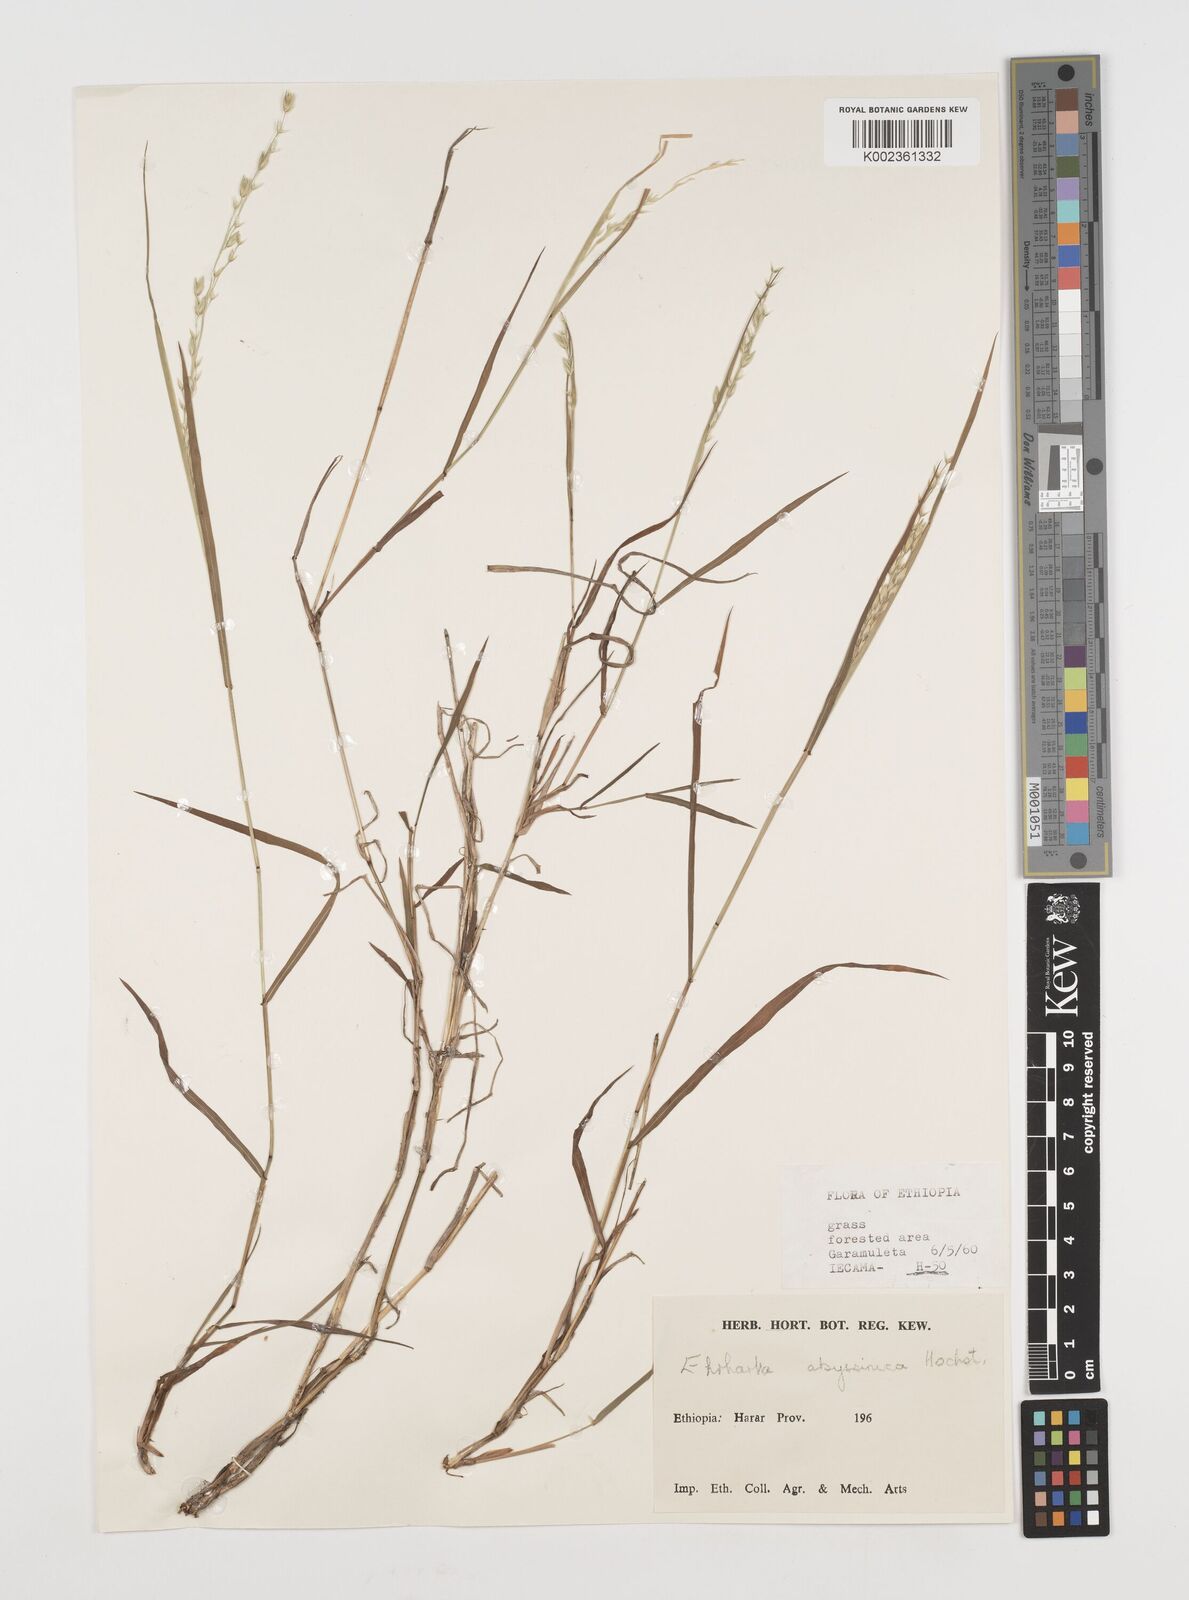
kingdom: Plantae
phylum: Tracheophyta
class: Liliopsida
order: Poales
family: Poaceae
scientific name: Poaceae
